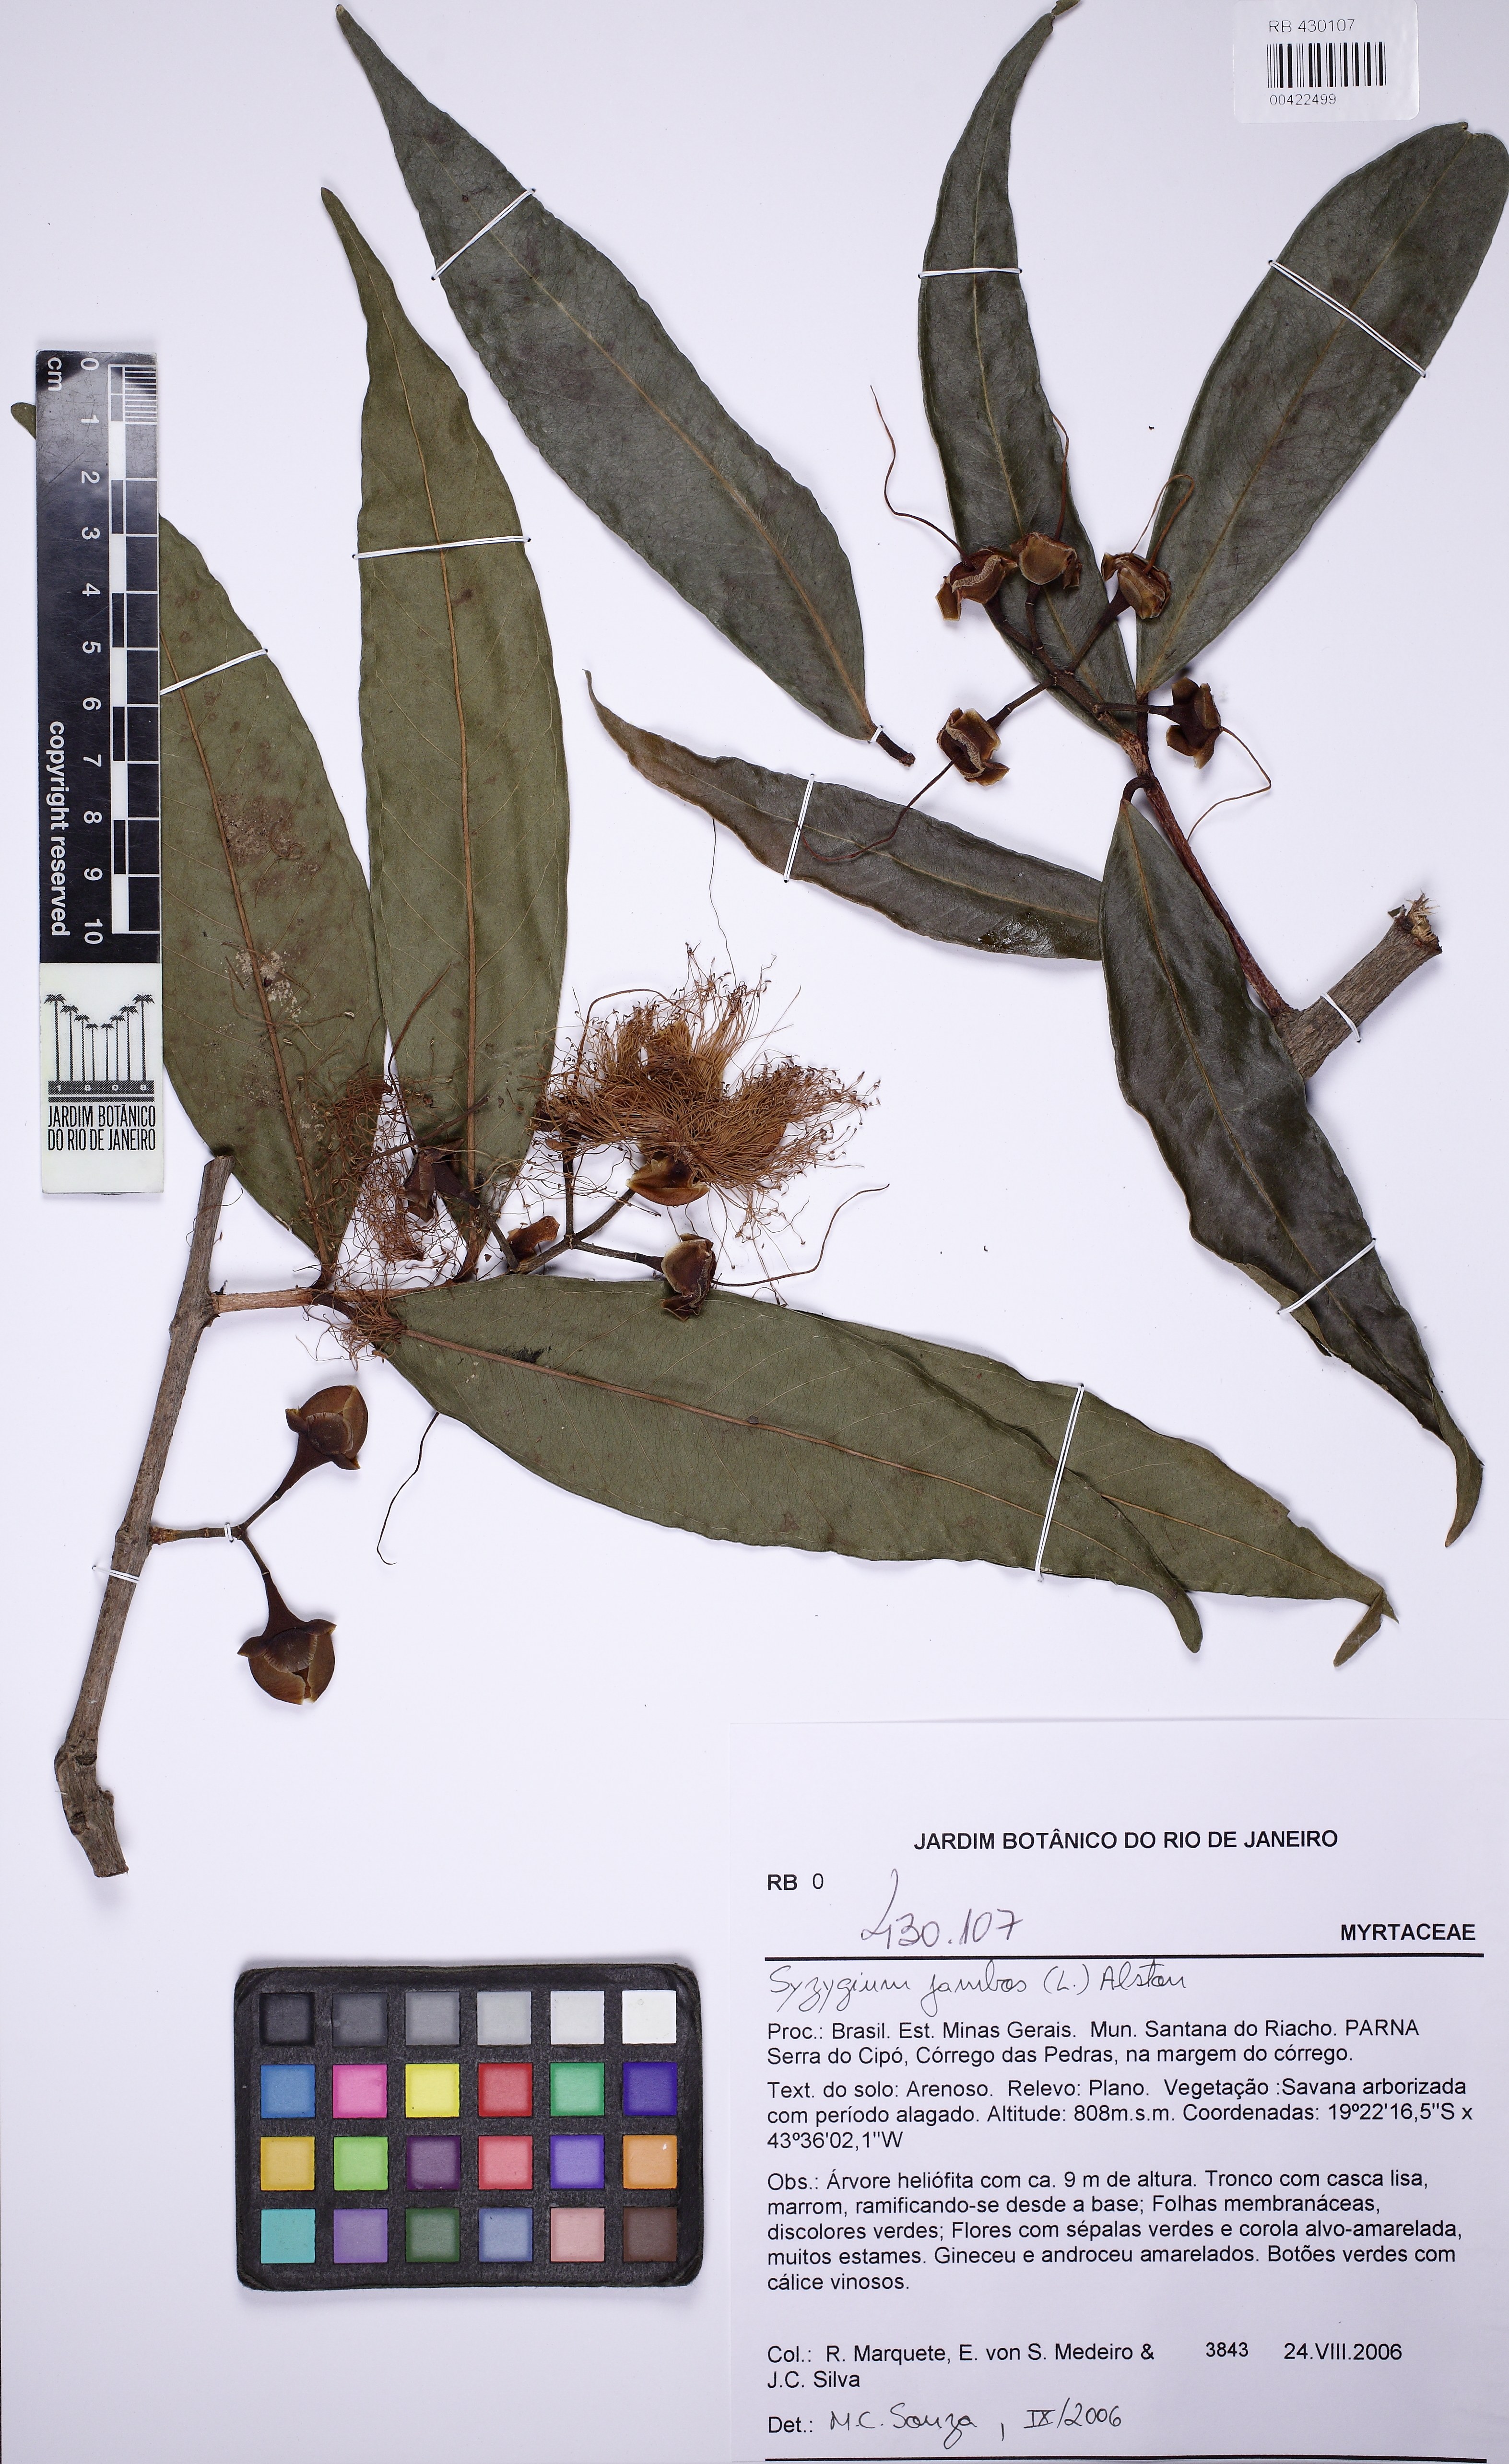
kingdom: Plantae
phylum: Tracheophyta
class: Magnoliopsida
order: Myrtales
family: Myrtaceae
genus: Syzygium
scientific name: Syzygium jambos
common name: Malabar plum
